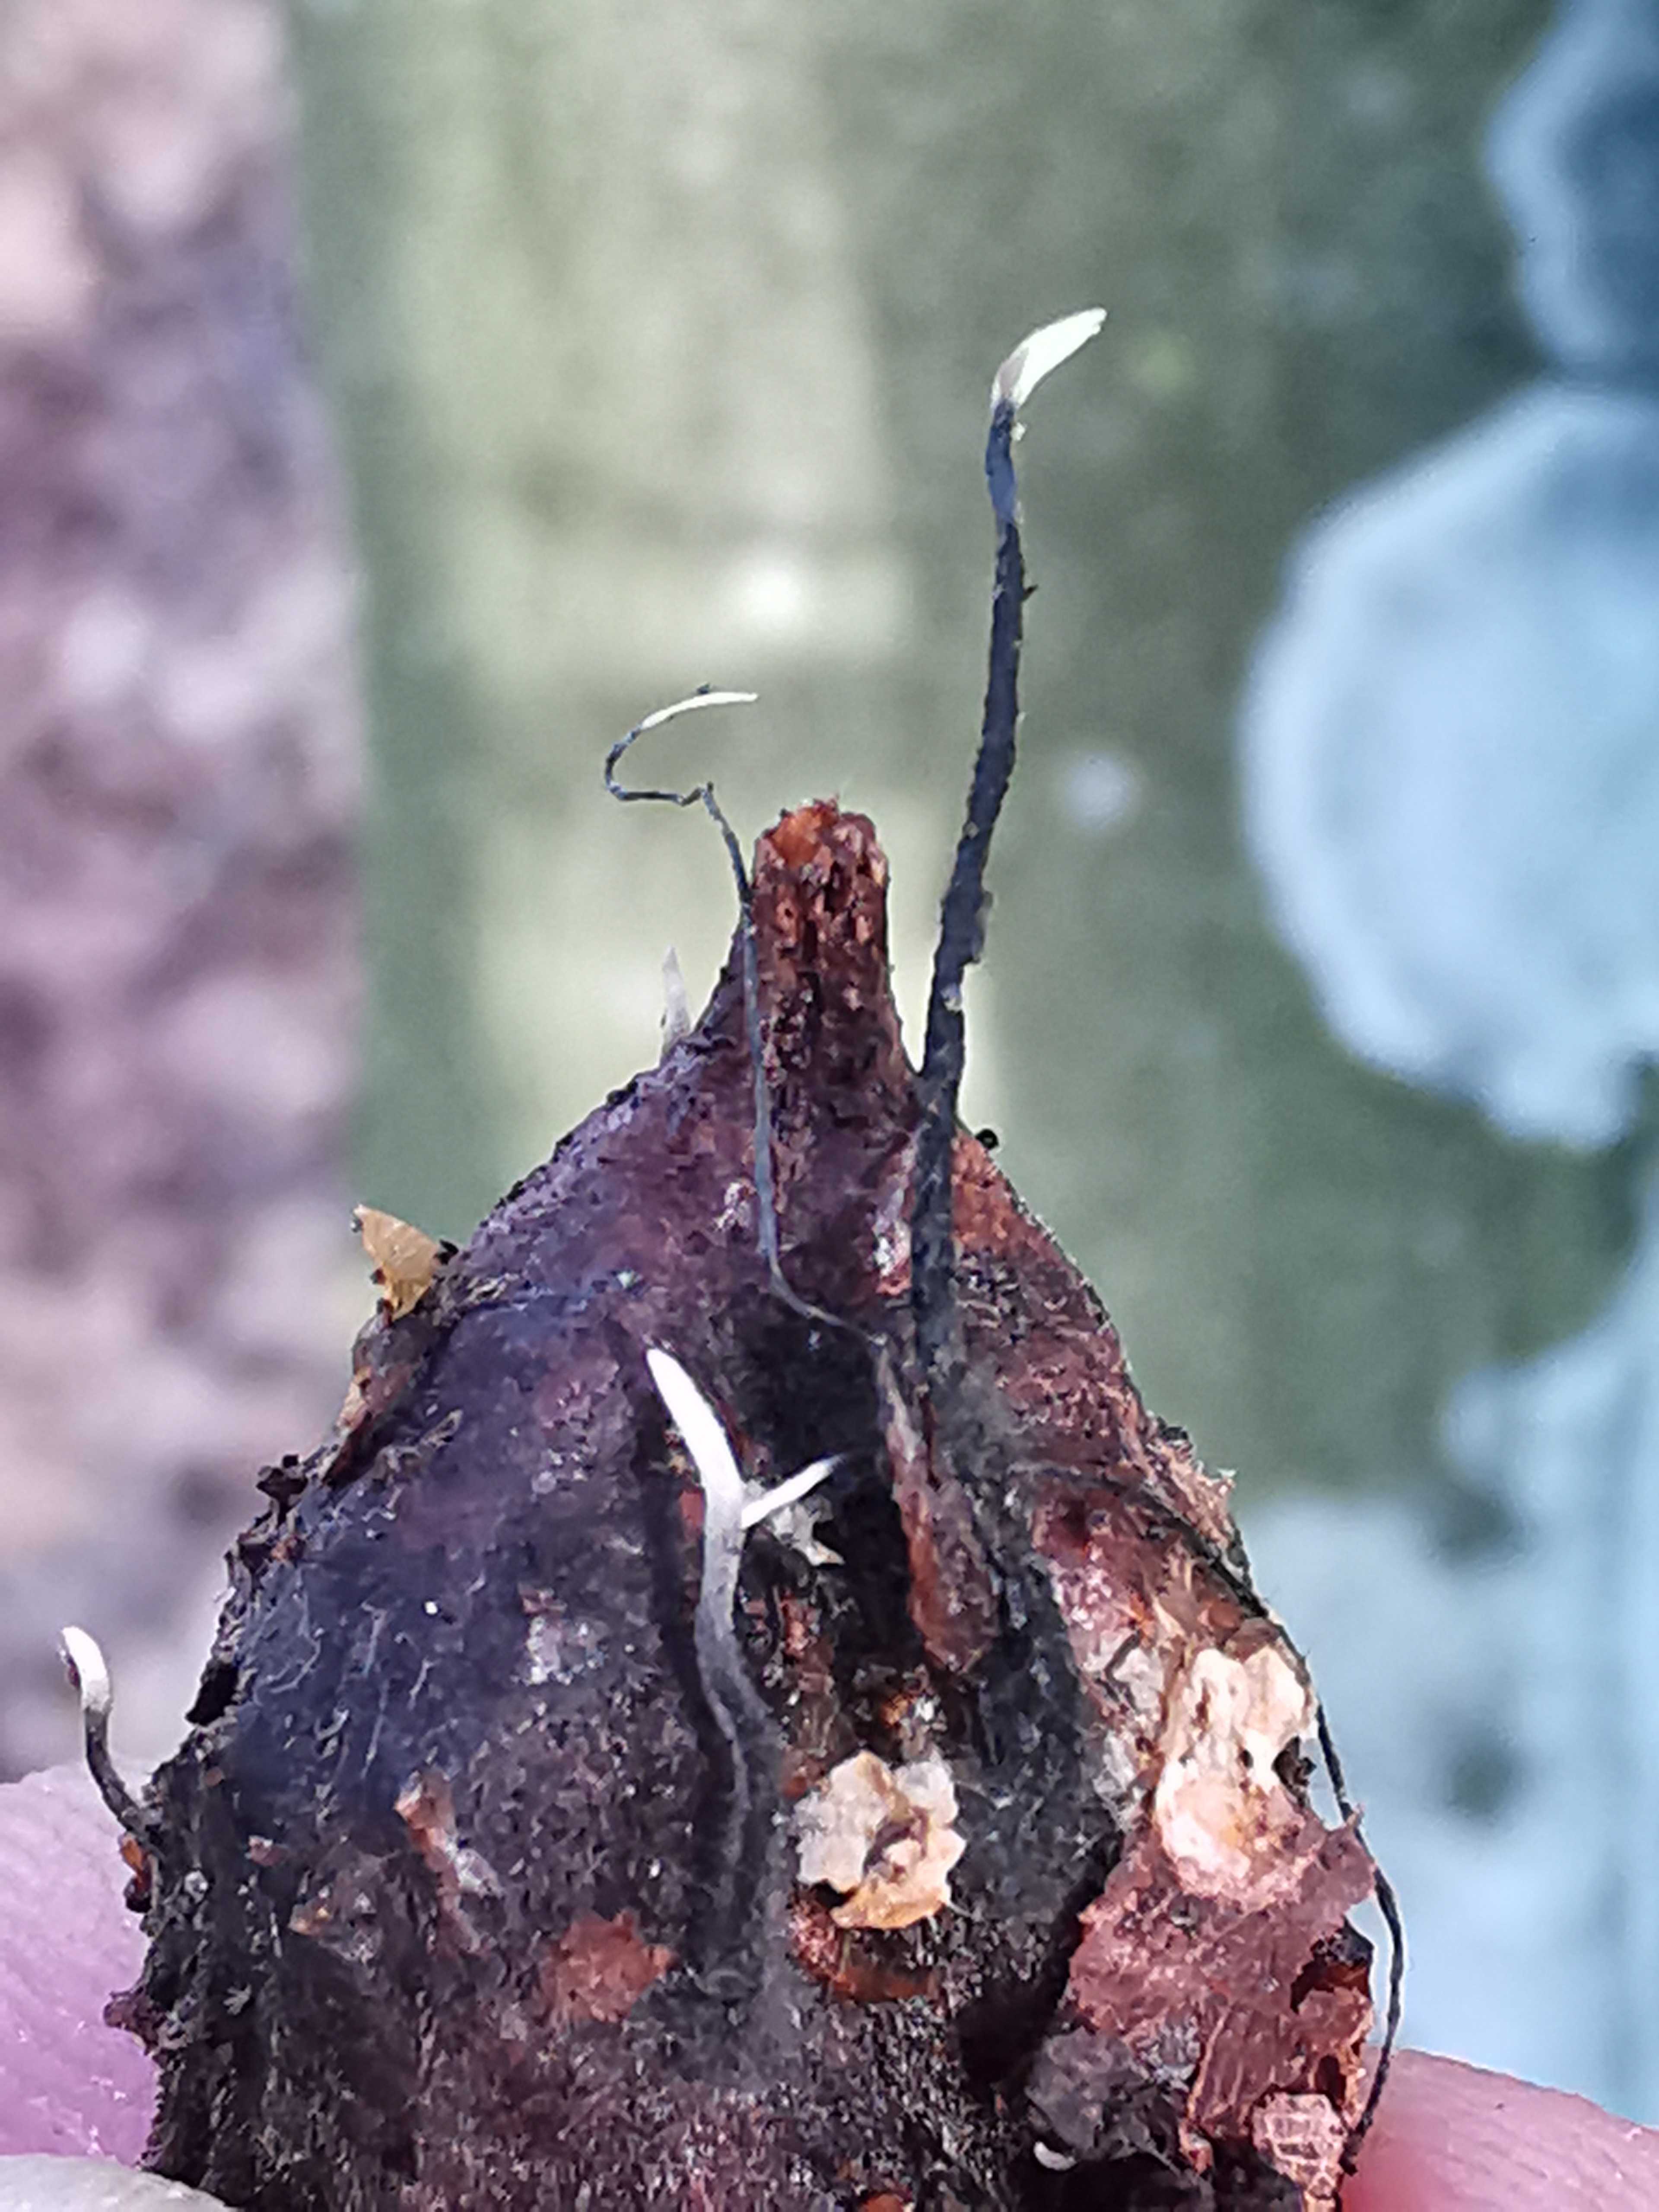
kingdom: Fungi
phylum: Ascomycota
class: Sordariomycetes
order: Xylariales
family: Xylariaceae
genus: Xylaria
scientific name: Xylaria carpophila
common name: bogskål-stødsvamp
